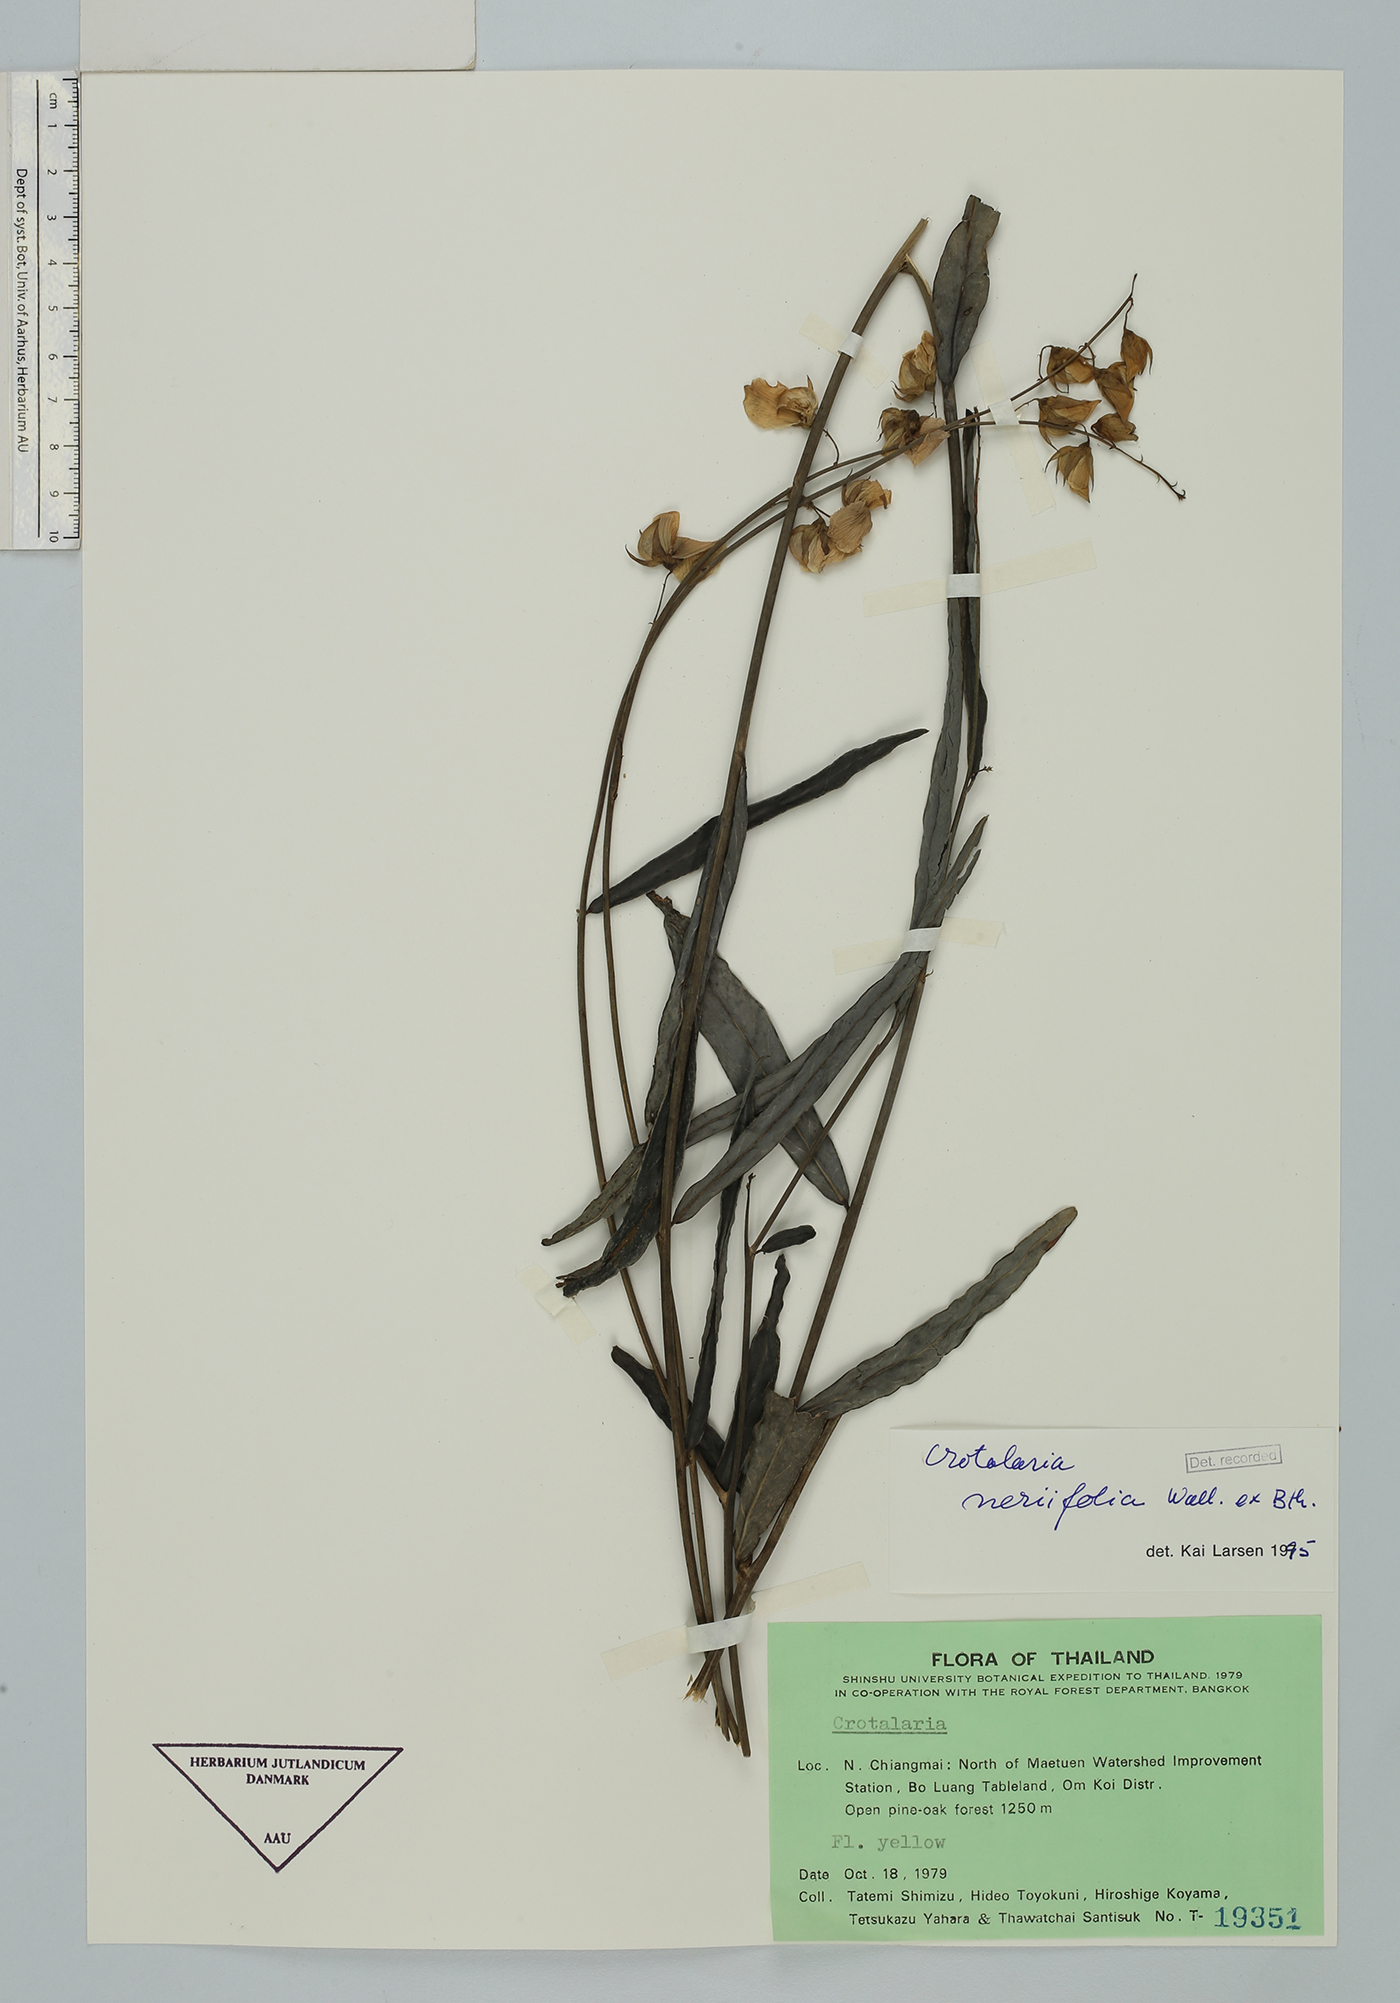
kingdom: Plantae
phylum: Tracheophyta
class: Magnoliopsida
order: Fabales
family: Fabaceae
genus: Crotalaria
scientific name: Crotalaria neriifolia
